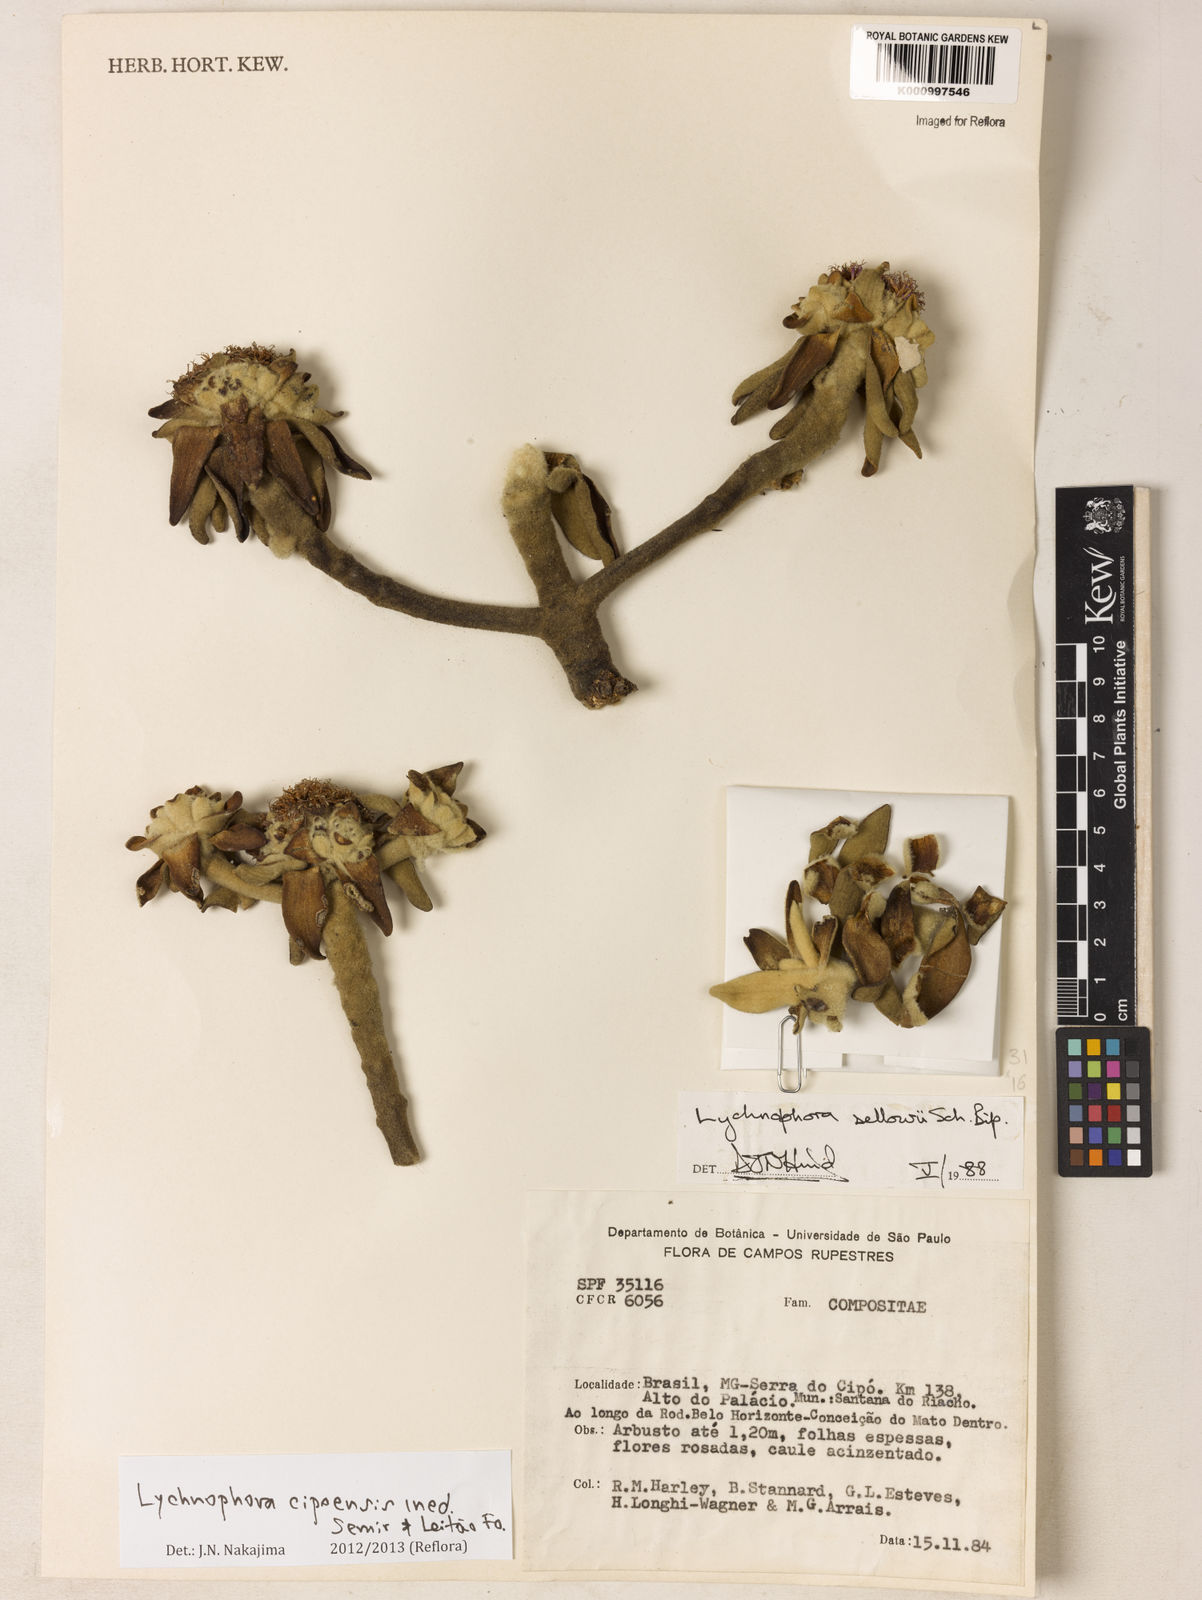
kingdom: Plantae
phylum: Tracheophyta
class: Magnoliopsida
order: Asterales
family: Asteraceae
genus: Lychnophora
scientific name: Lychnophora
